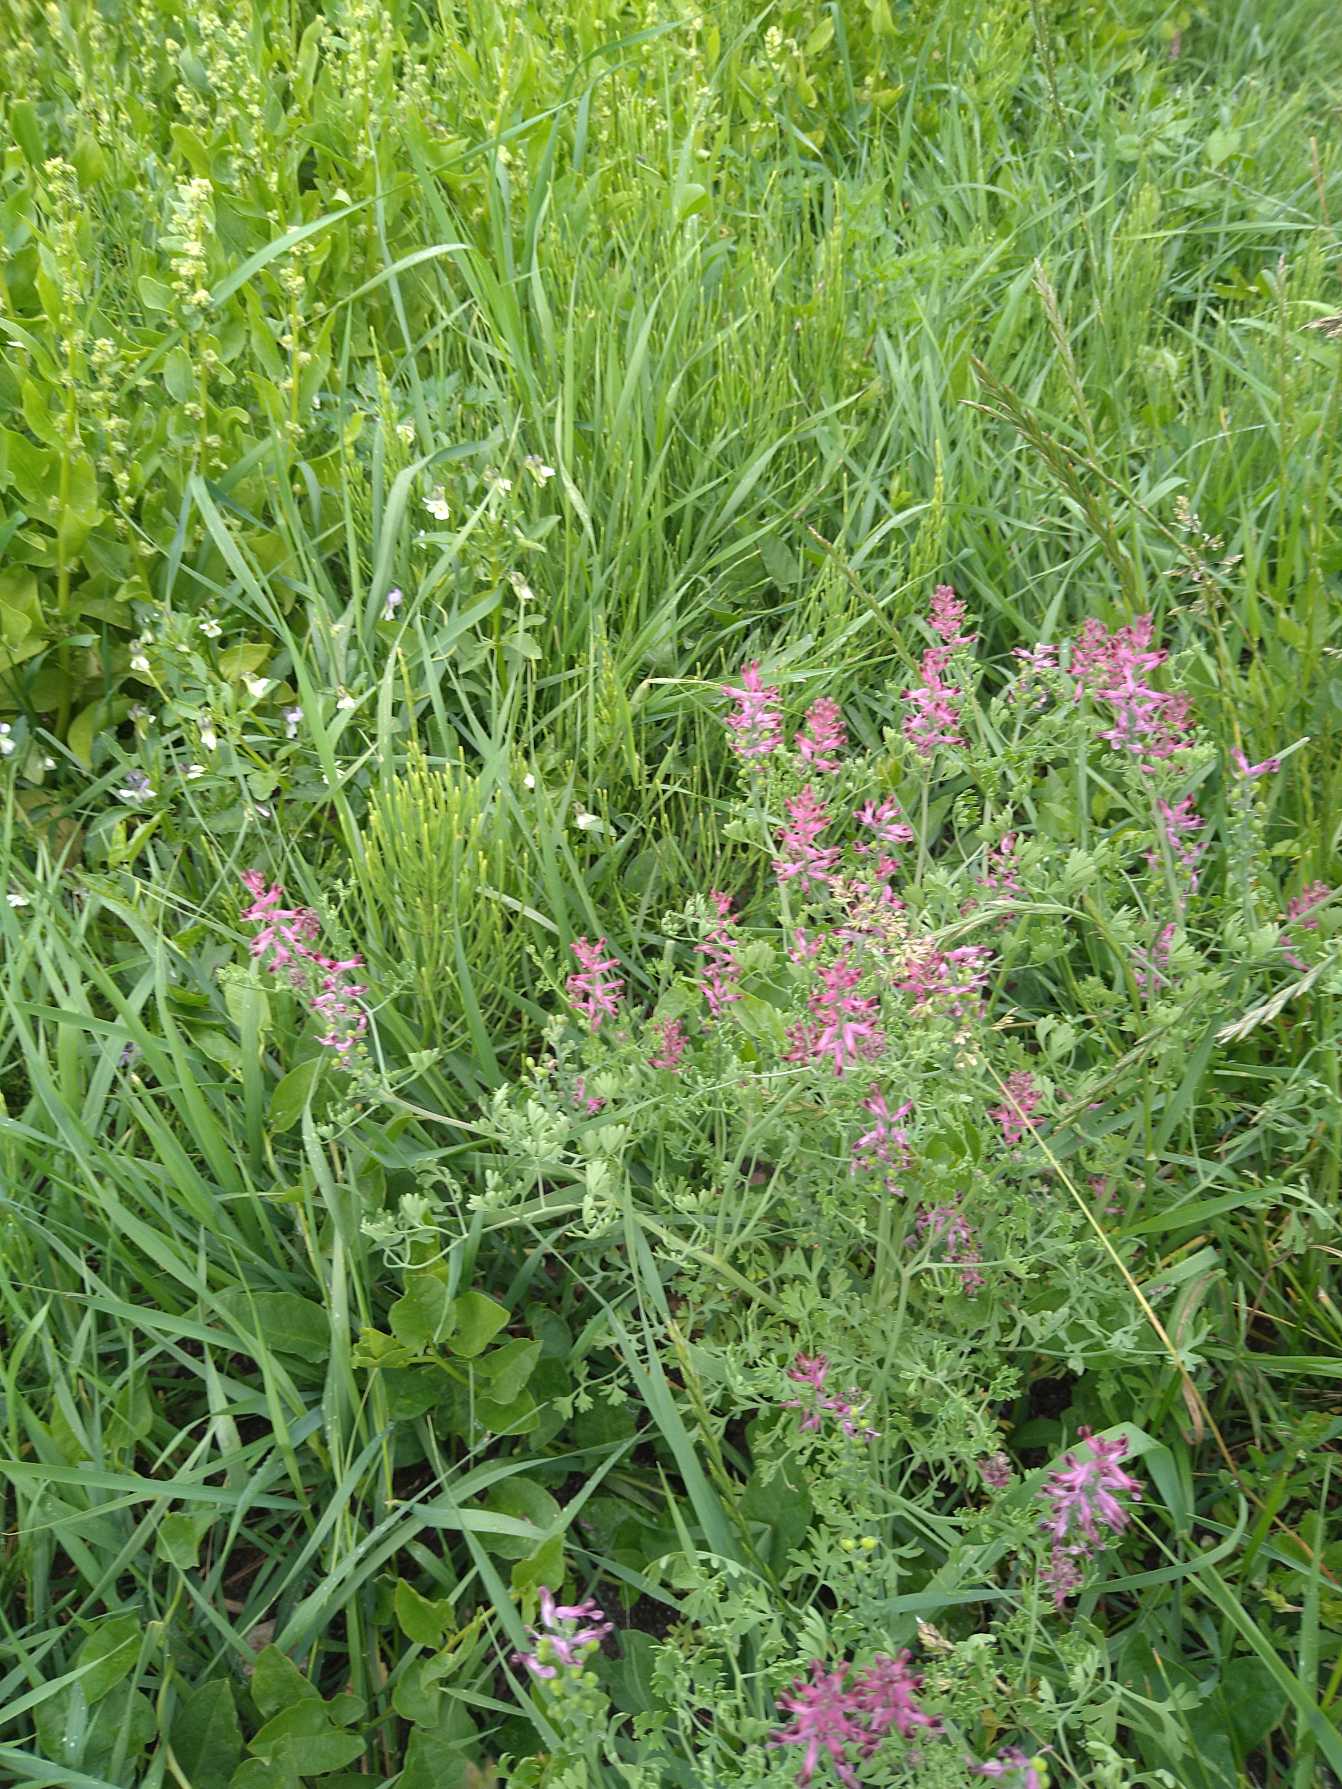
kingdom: Plantae
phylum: Tracheophyta
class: Magnoliopsida
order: Ranunculales
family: Papaveraceae
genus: Fumaria
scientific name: Fumaria officinalis
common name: Læge-jordrøg
